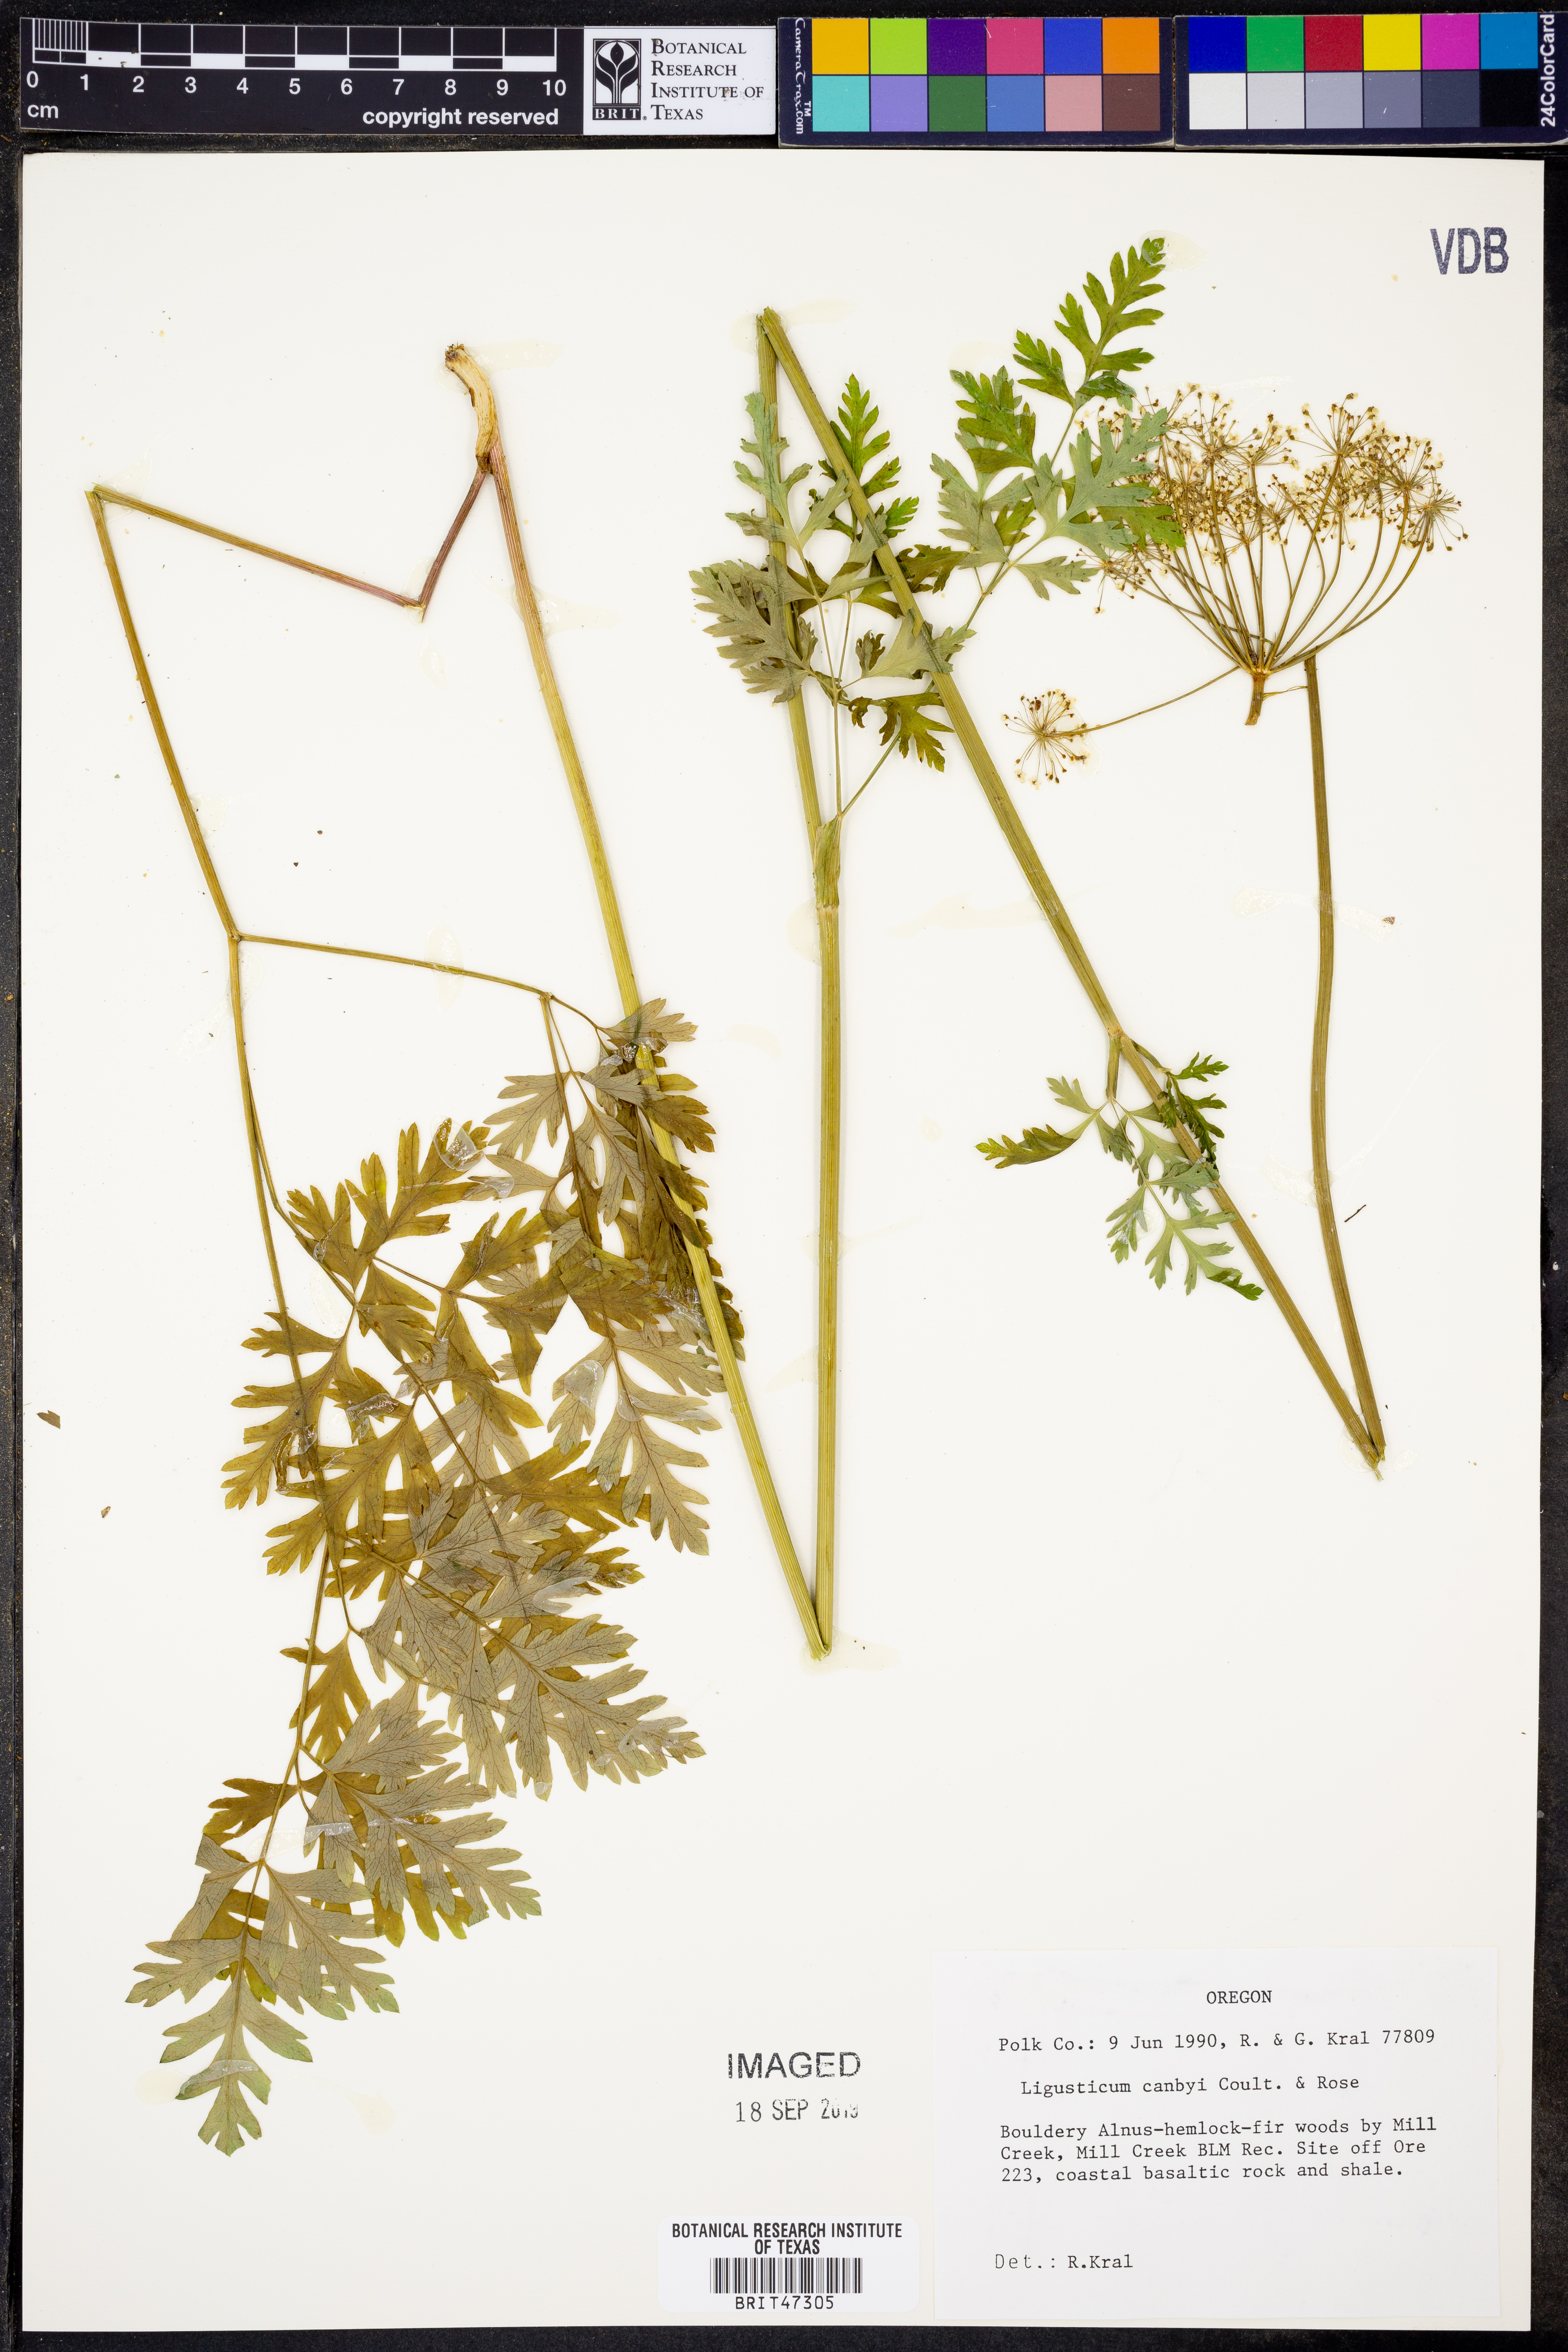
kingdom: Plantae
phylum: Tracheophyta
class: Magnoliopsida
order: Apiales
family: Apiaceae
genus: Ligusticum
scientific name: Ligusticum canbyi
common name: Canby’s licorice-root
